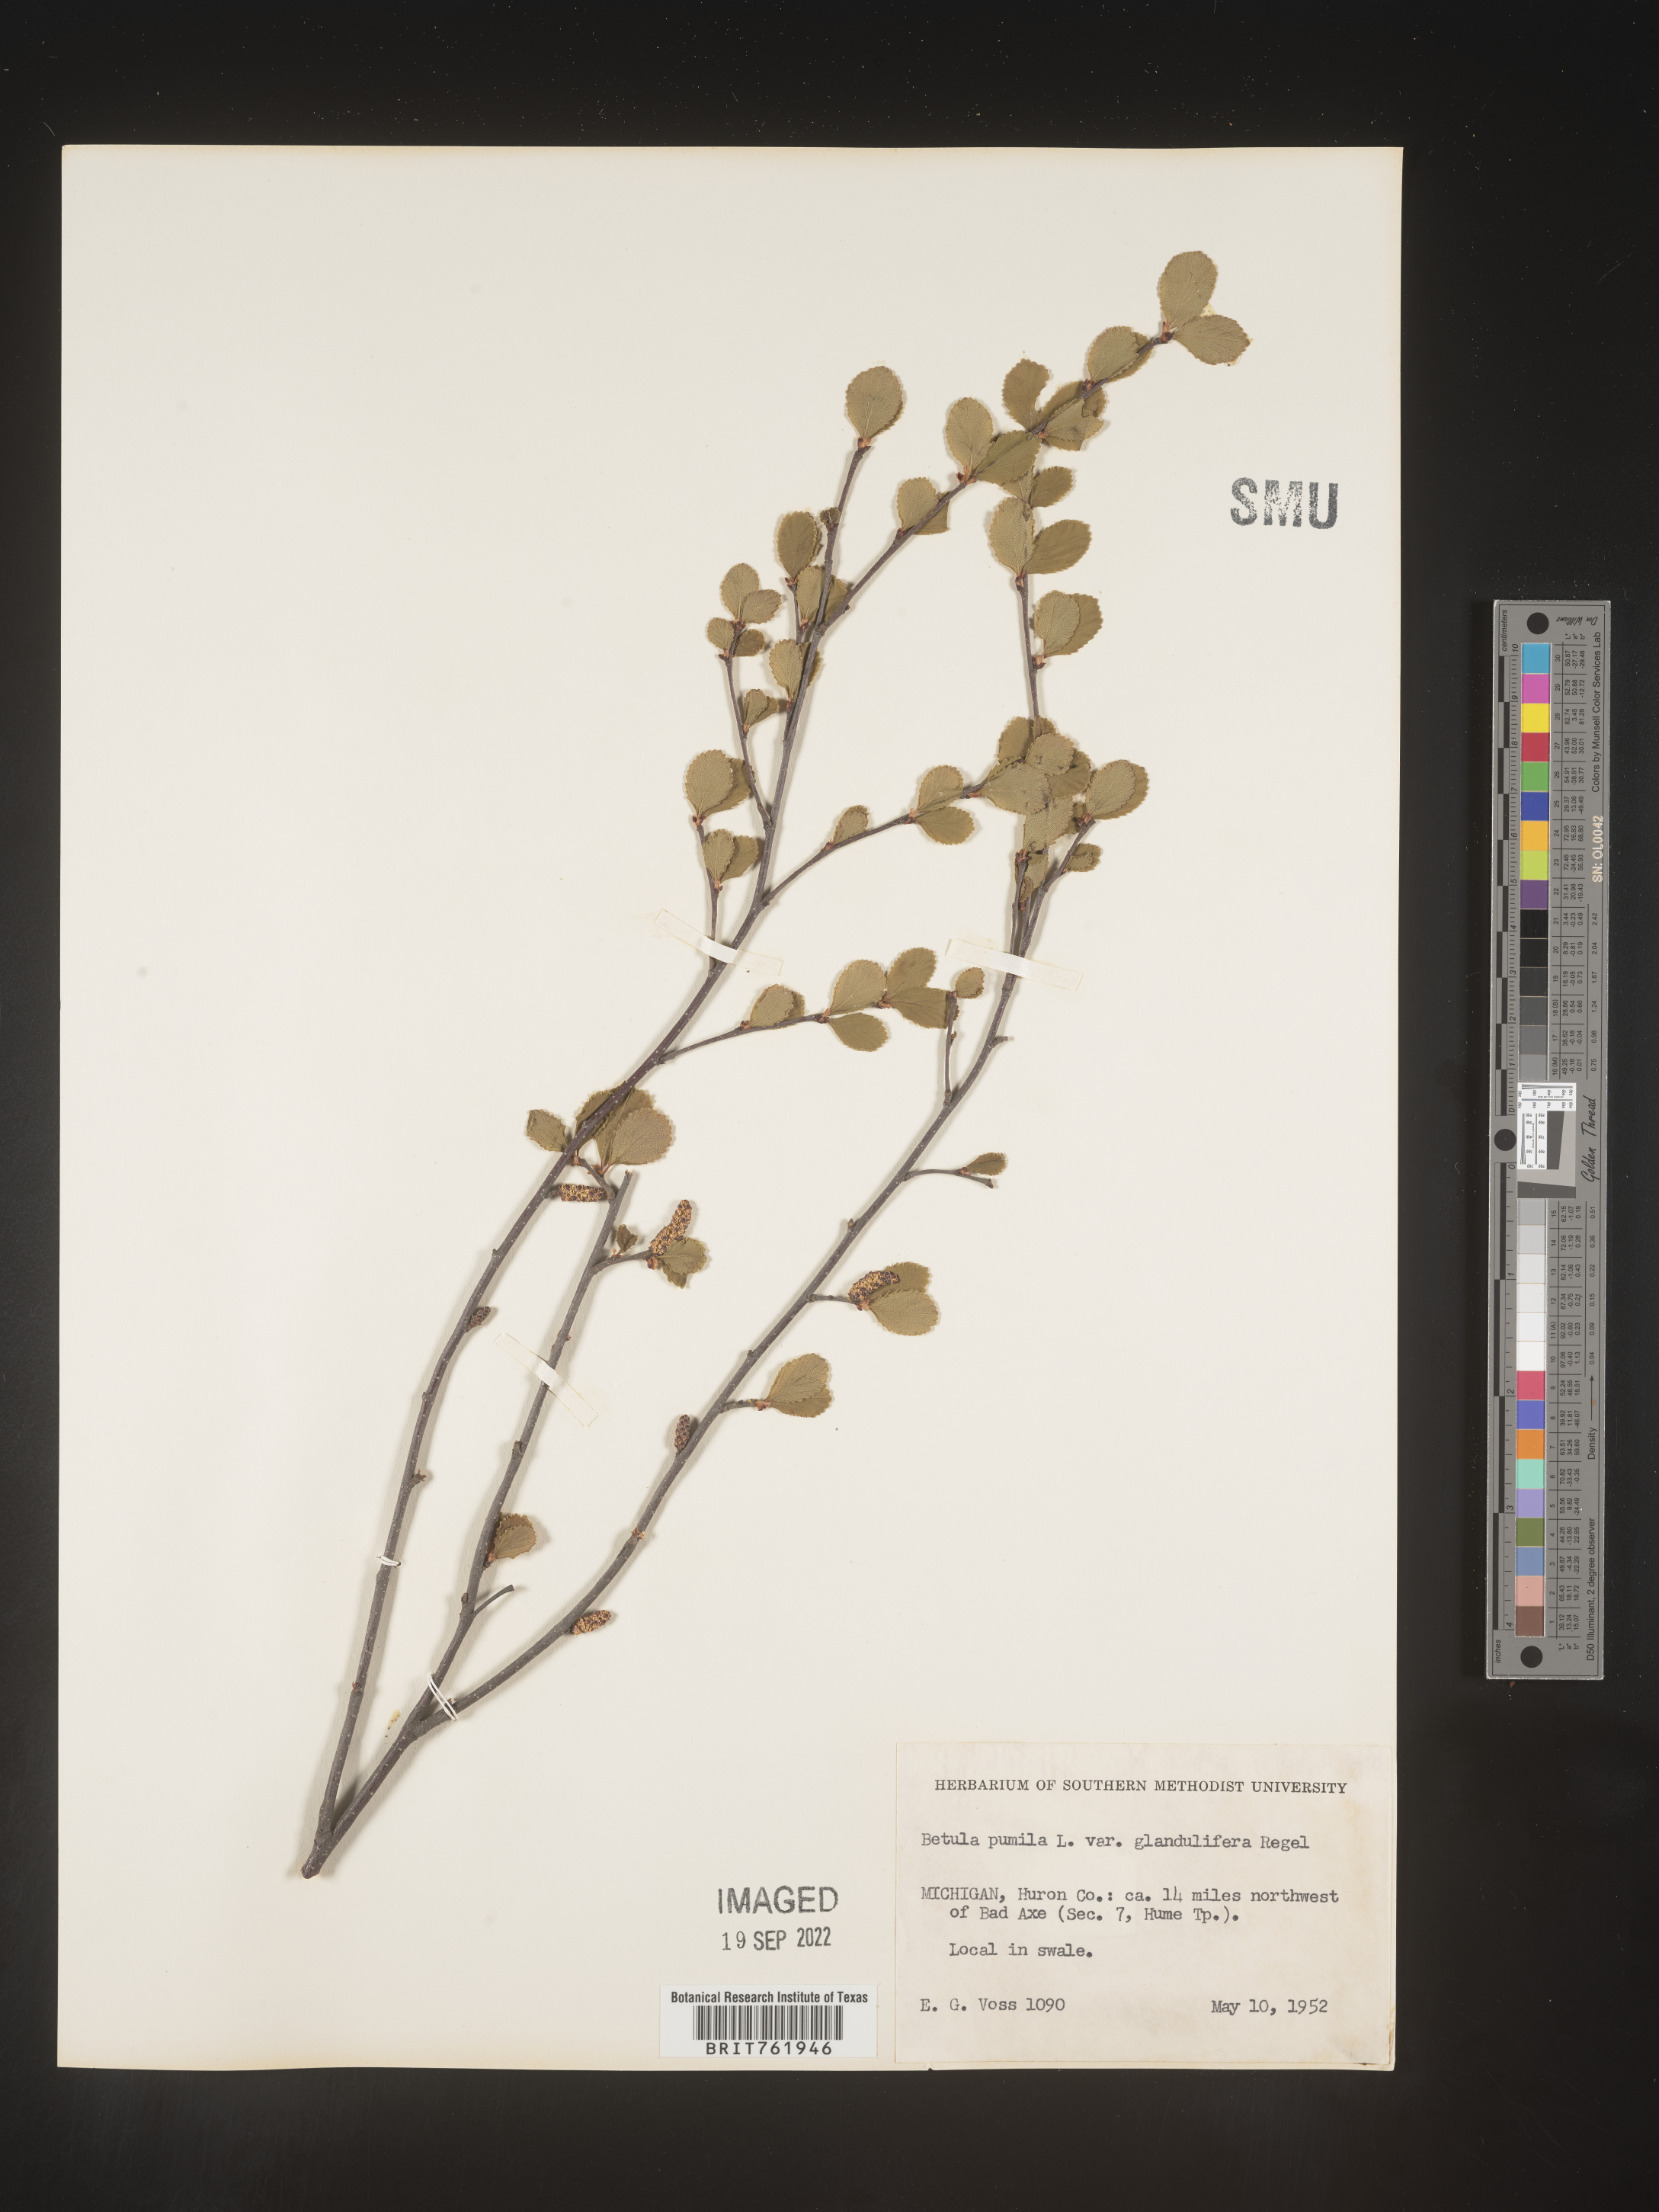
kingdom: Plantae
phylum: Tracheophyta
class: Magnoliopsida
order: Fagales
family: Betulaceae
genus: Betula
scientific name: Betula pumila
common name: Bog birch
